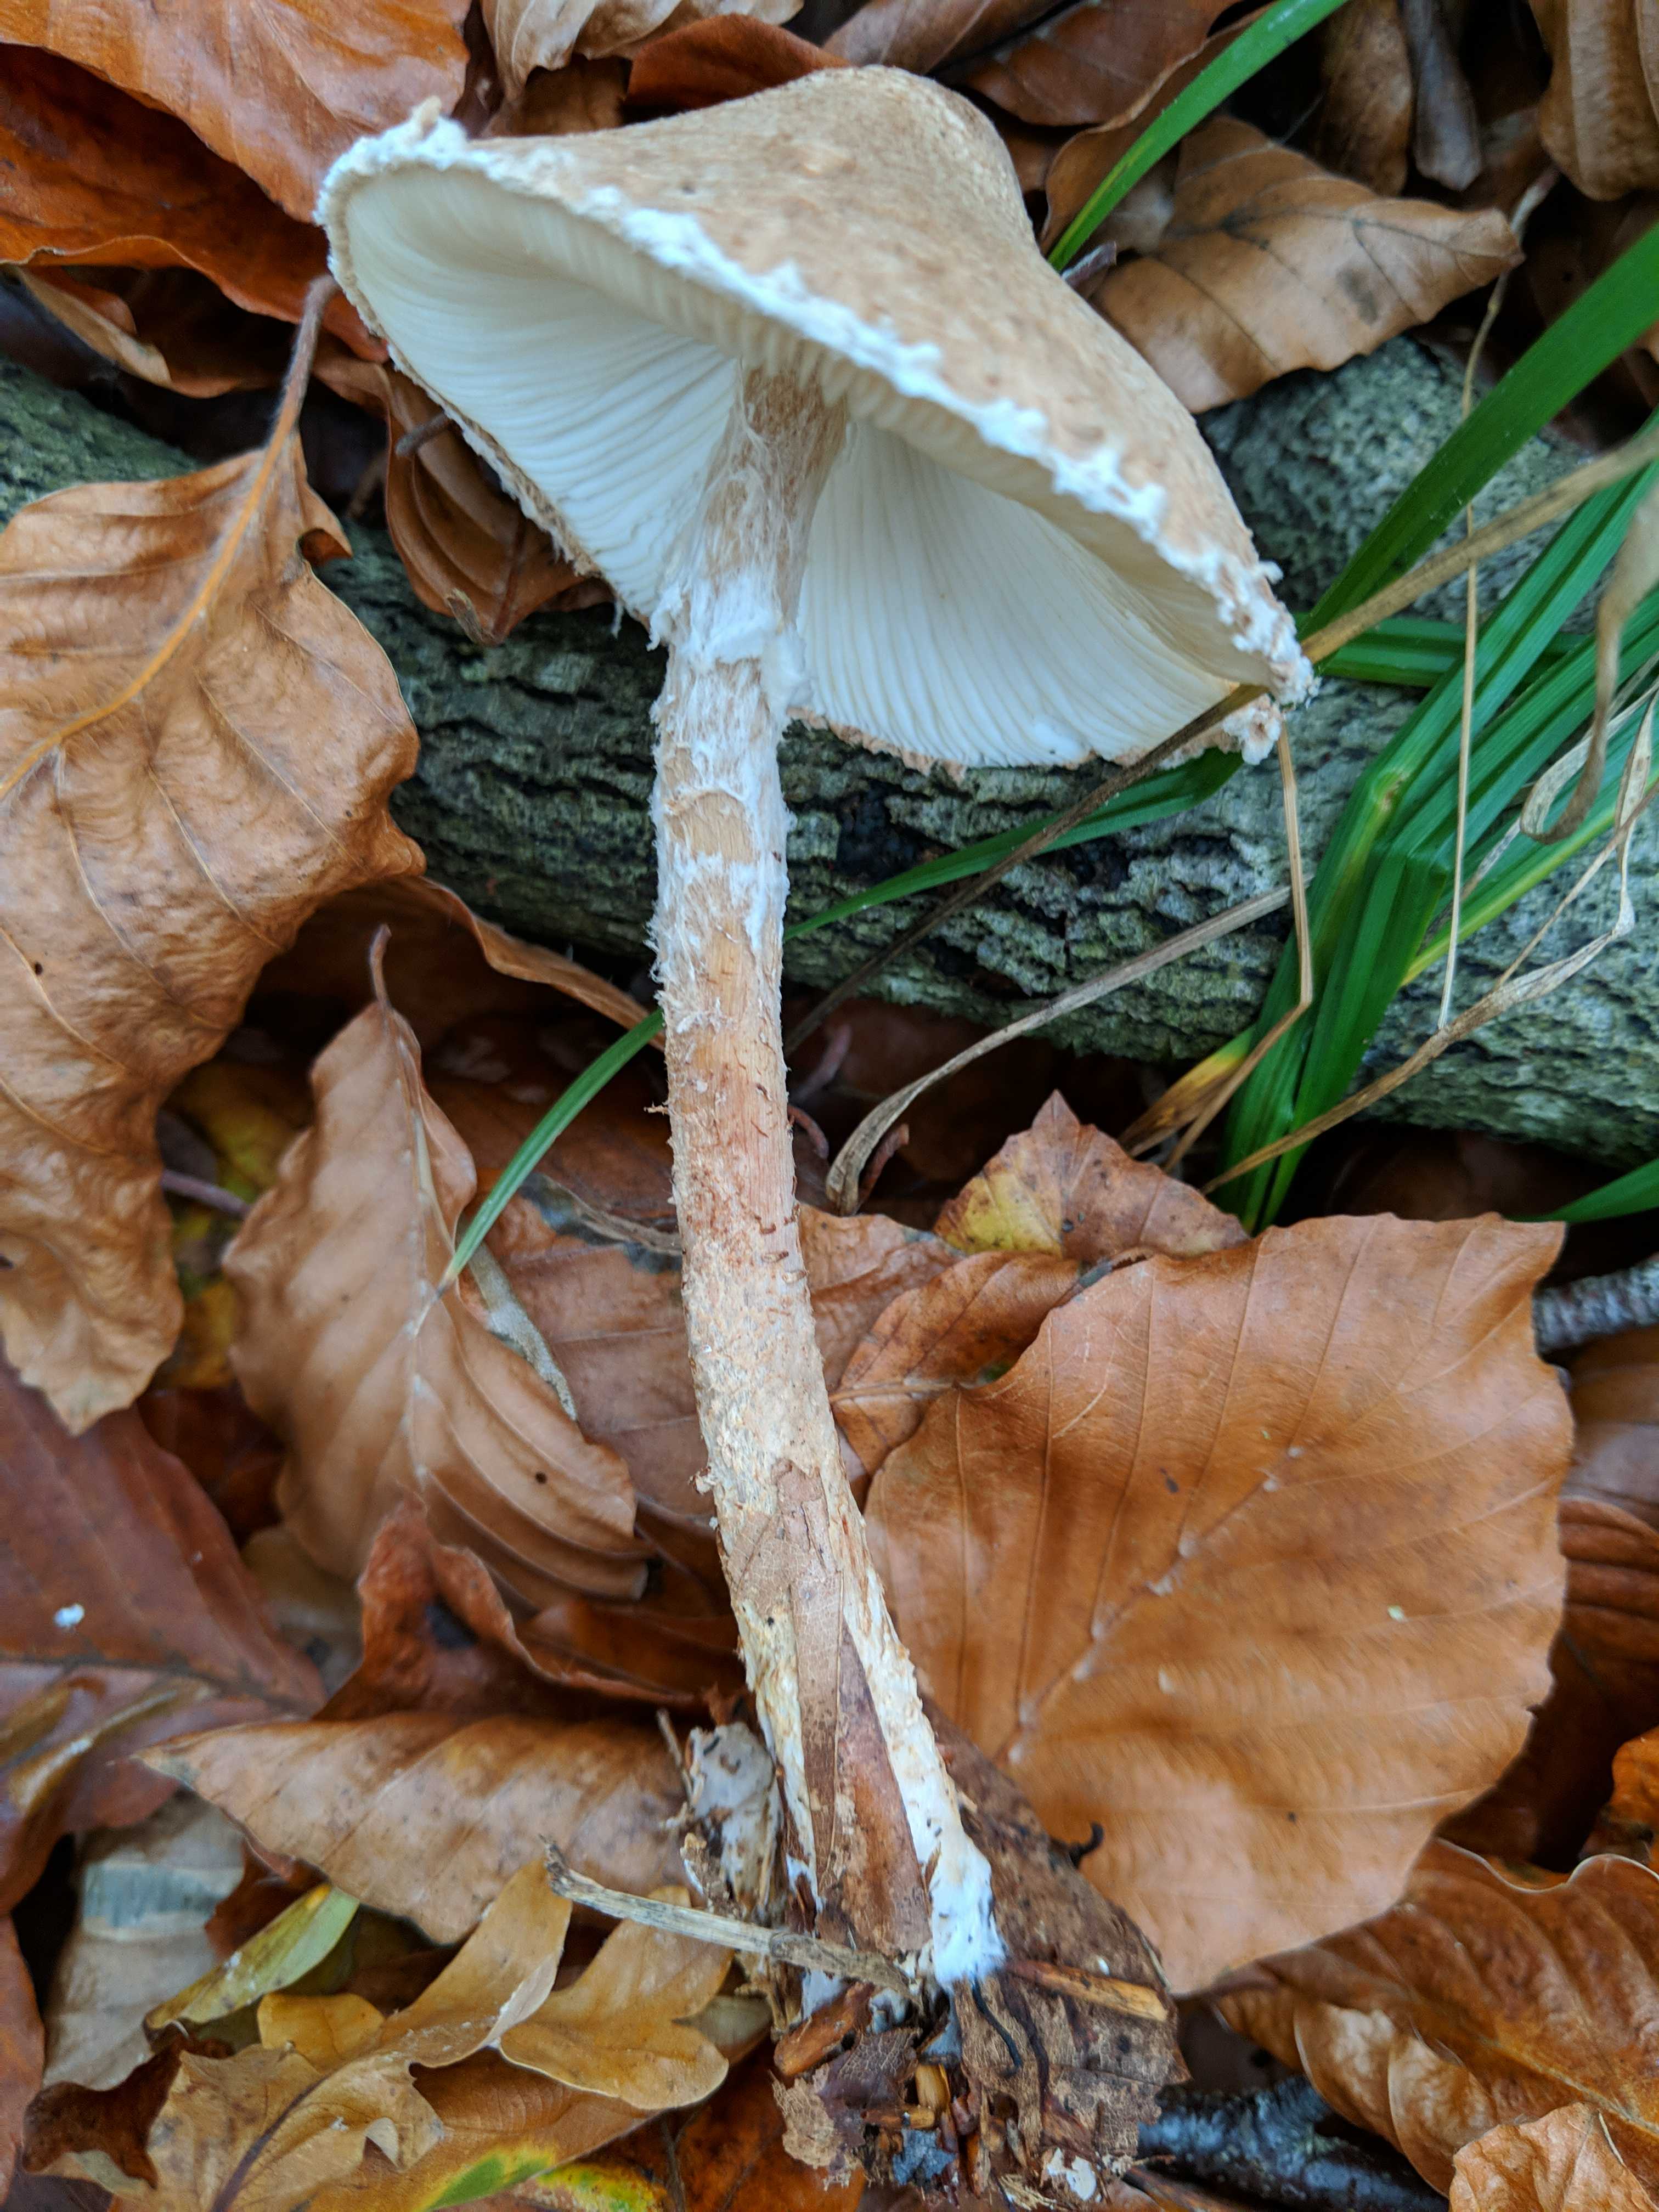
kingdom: Fungi
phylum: Basidiomycota
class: Agaricomycetes
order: Agaricales
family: Agaricaceae
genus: Lepiota
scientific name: Lepiota
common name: parasolhat
